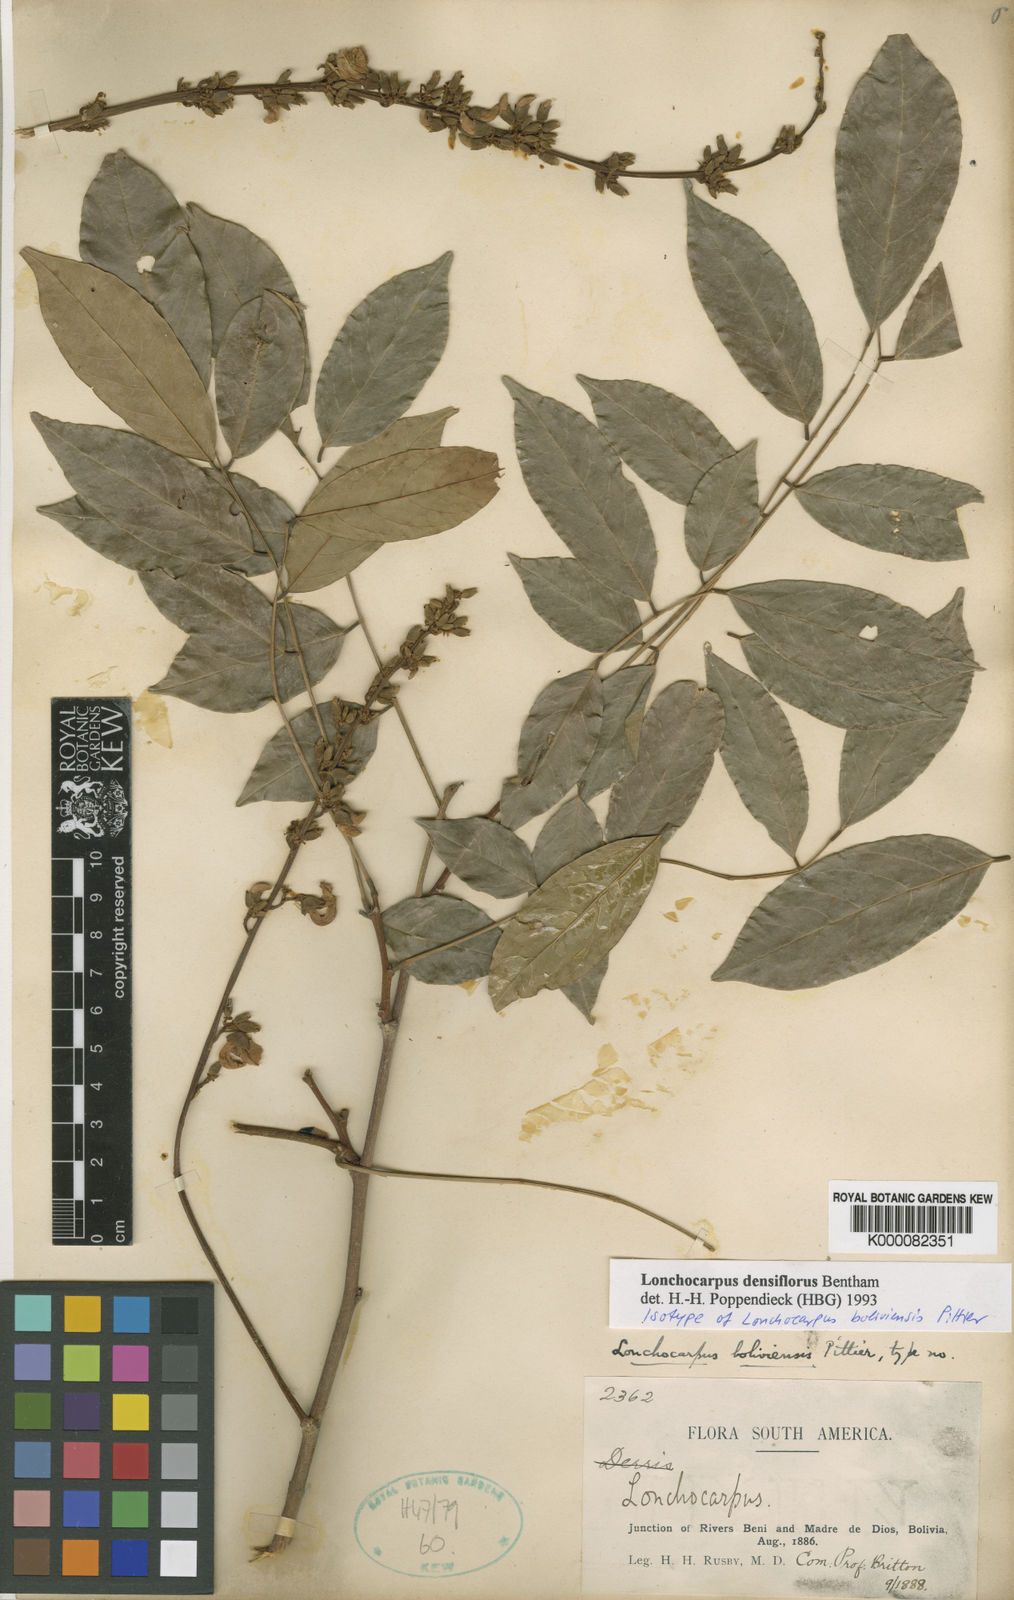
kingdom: Plantae
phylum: Tracheophyta
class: Magnoliopsida
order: Fabales
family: Fabaceae
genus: Deguelia
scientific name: Deguelia densiflora
